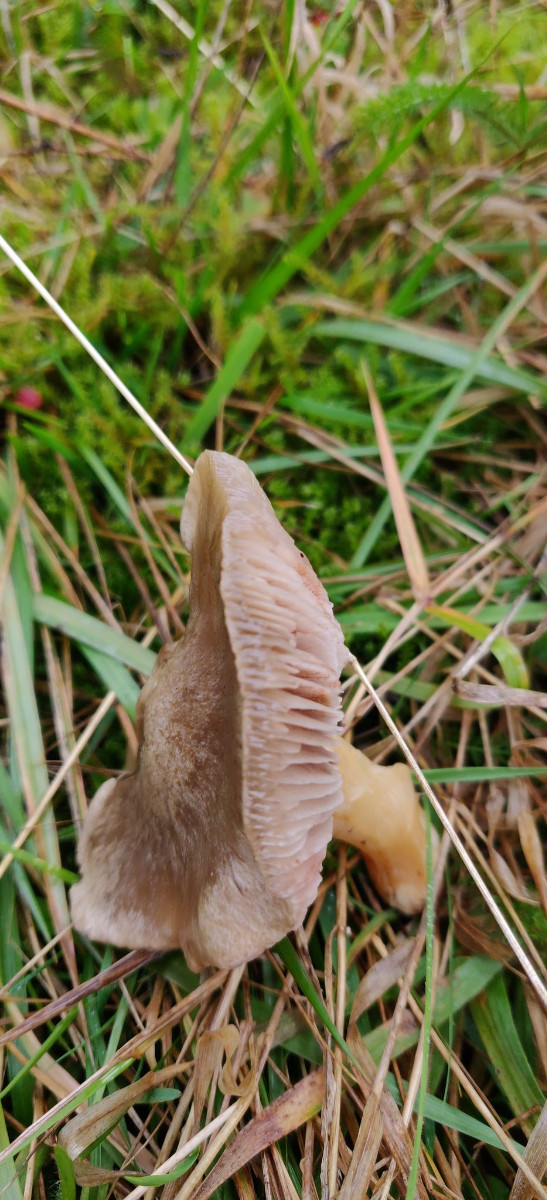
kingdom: Fungi
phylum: Basidiomycota
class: Agaricomycetes
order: Agaricales
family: Entolomataceae
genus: Entoloma
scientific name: Entoloma prunuloides
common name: mel-rødblad
